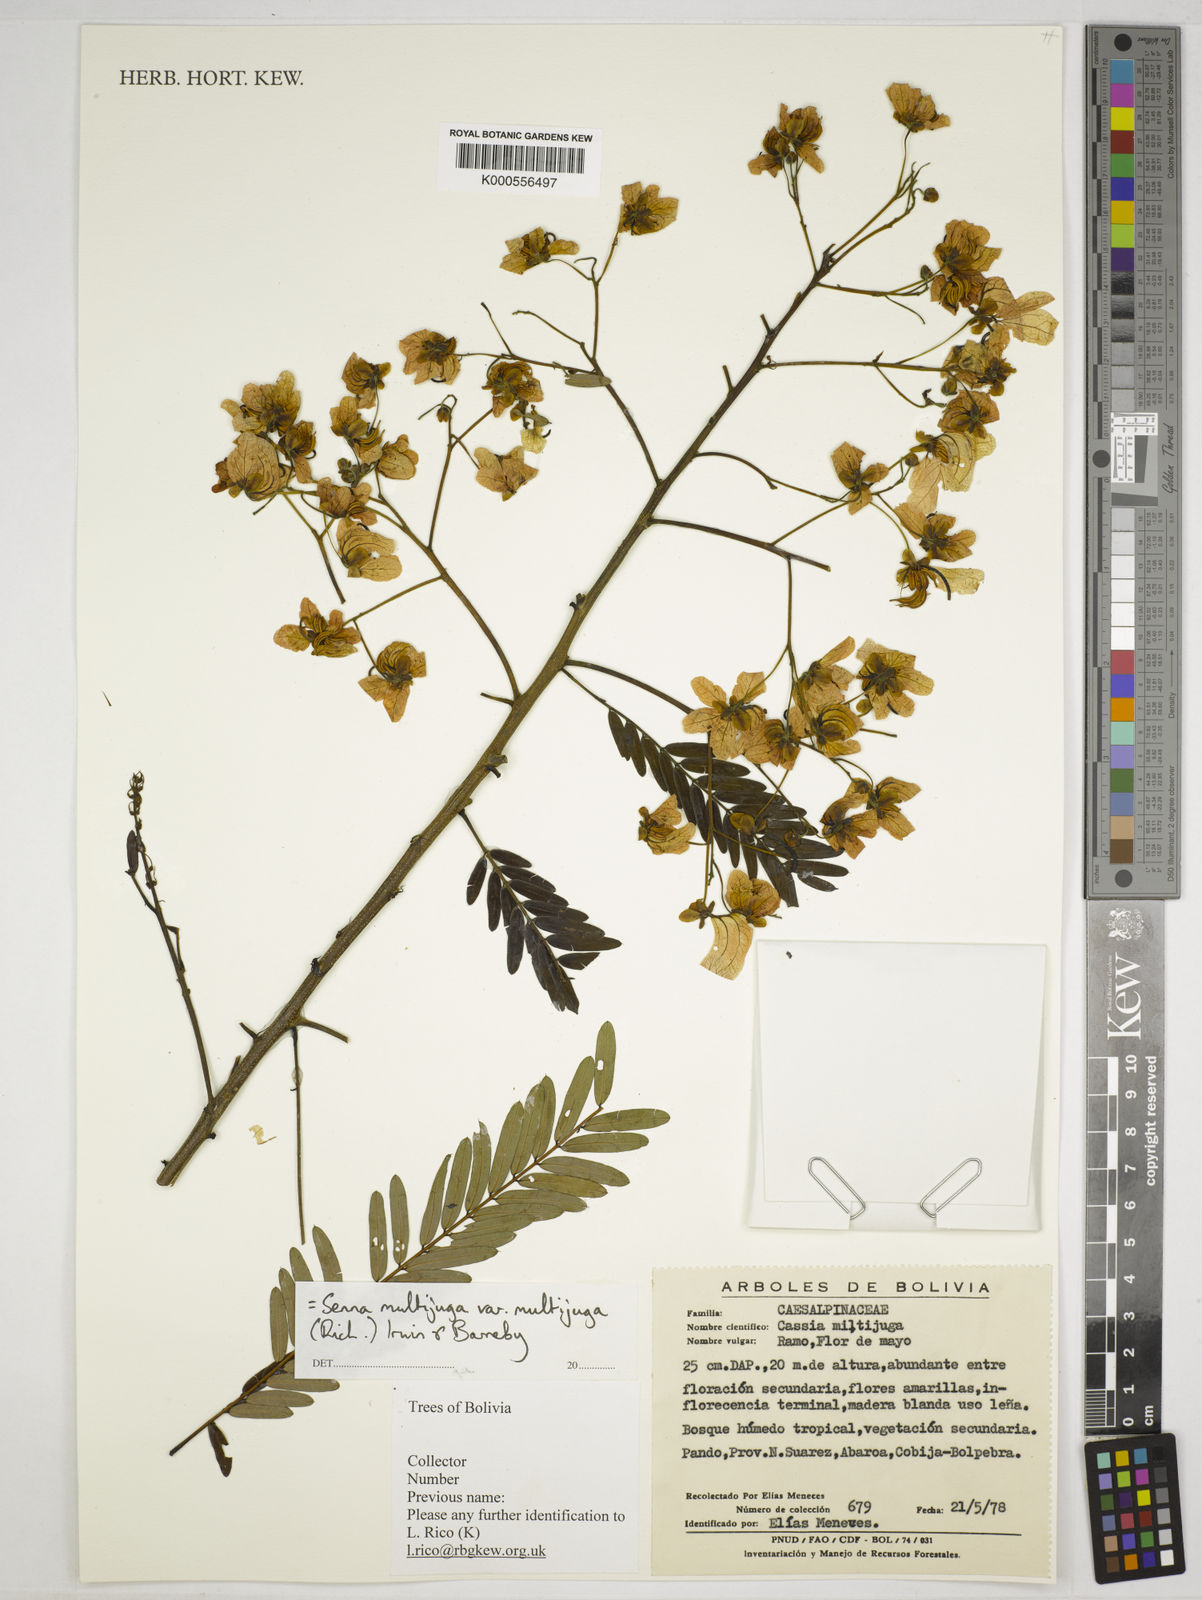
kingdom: Plantae
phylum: Tracheophyta
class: Magnoliopsida
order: Fabales
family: Fabaceae
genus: Senna
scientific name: Senna multijuga
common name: False sicklepod
